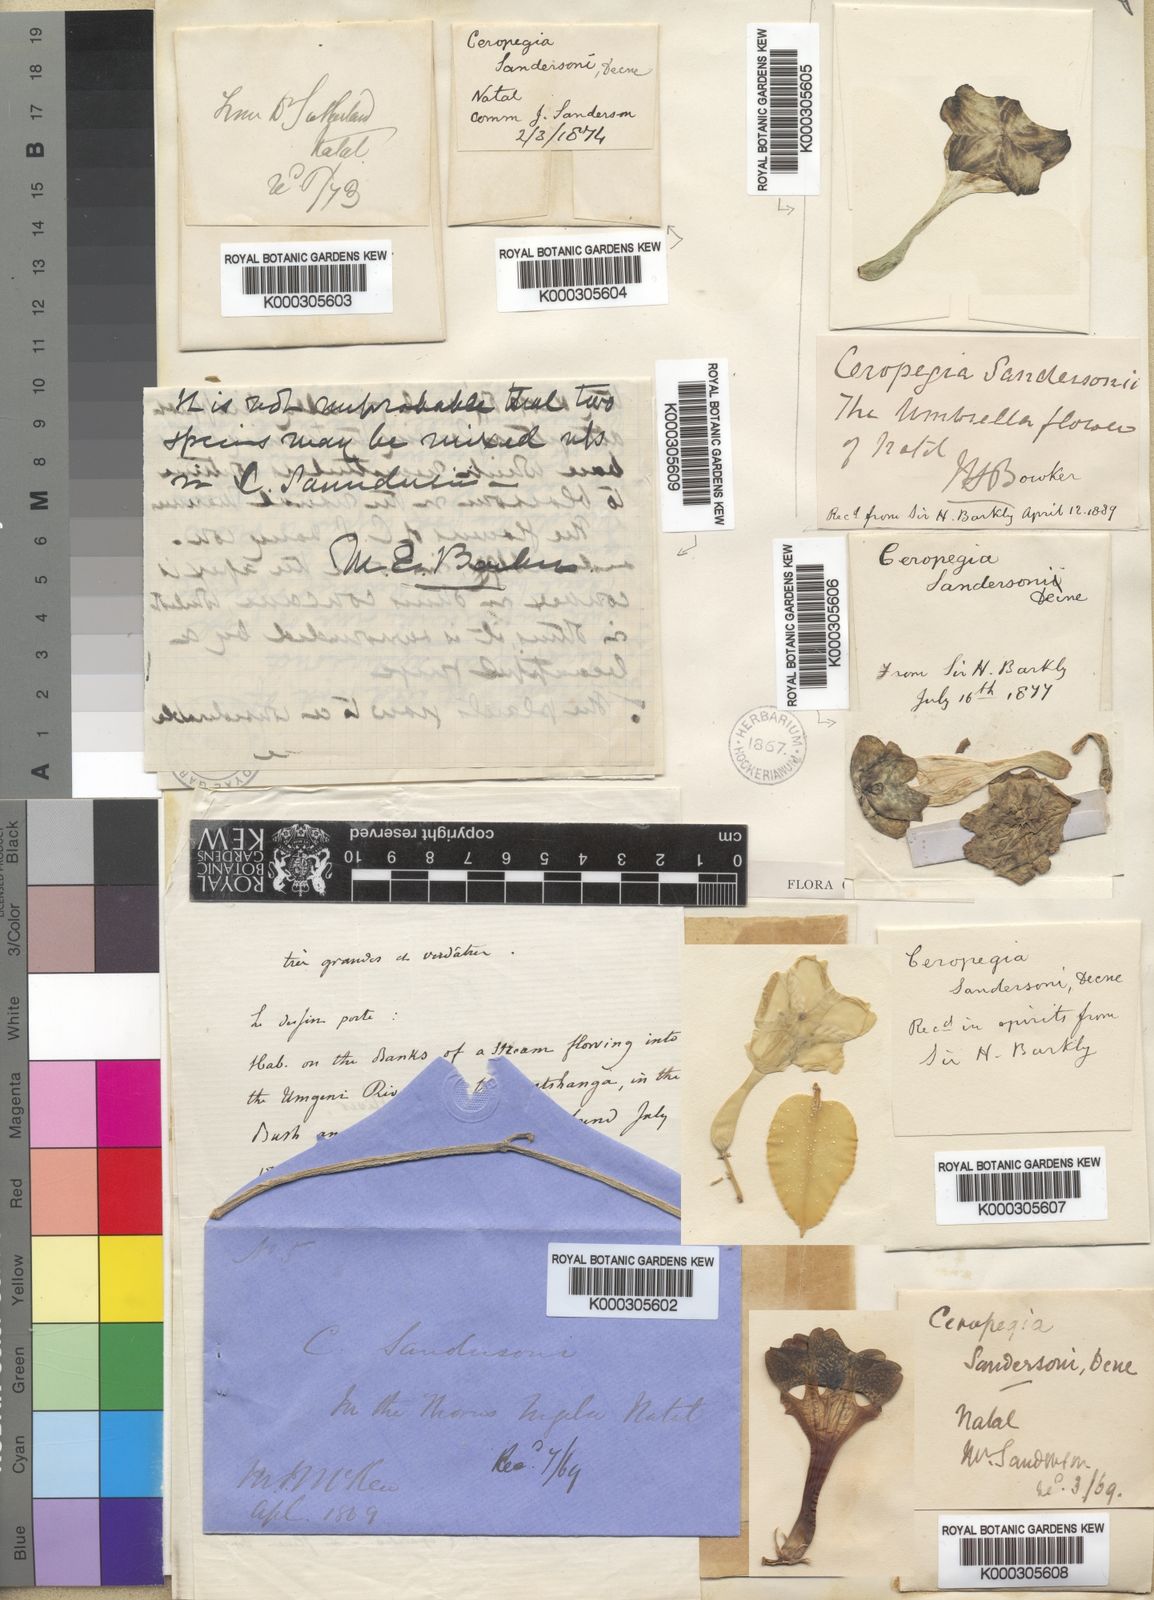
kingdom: Plantae
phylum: Tracheophyta
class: Magnoliopsida
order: Gentianales
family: Apocynaceae
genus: Ceropegia
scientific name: Ceropegia sandersonii
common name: Fountain-flower
